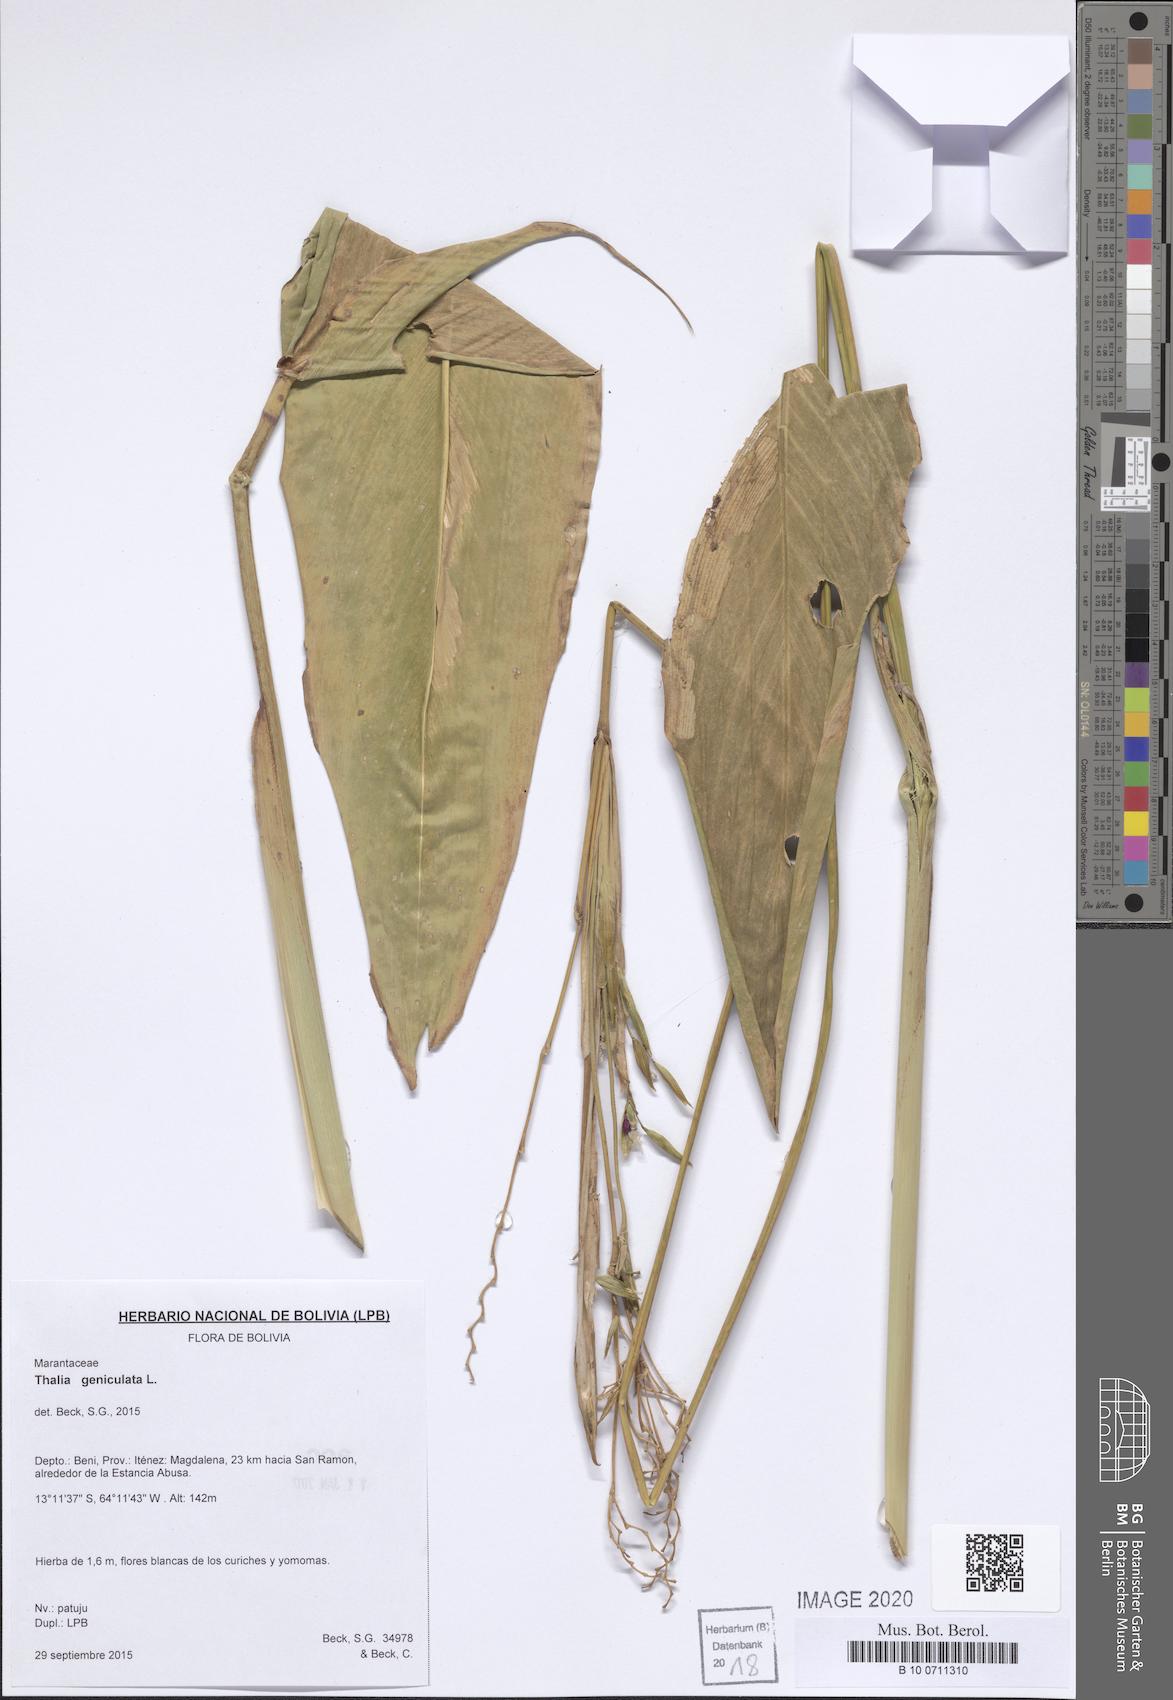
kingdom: Plantae
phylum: Tracheophyta
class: Liliopsida
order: Zingiberales
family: Marantaceae
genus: Thalia
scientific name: Thalia geniculata
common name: Arrowroot
